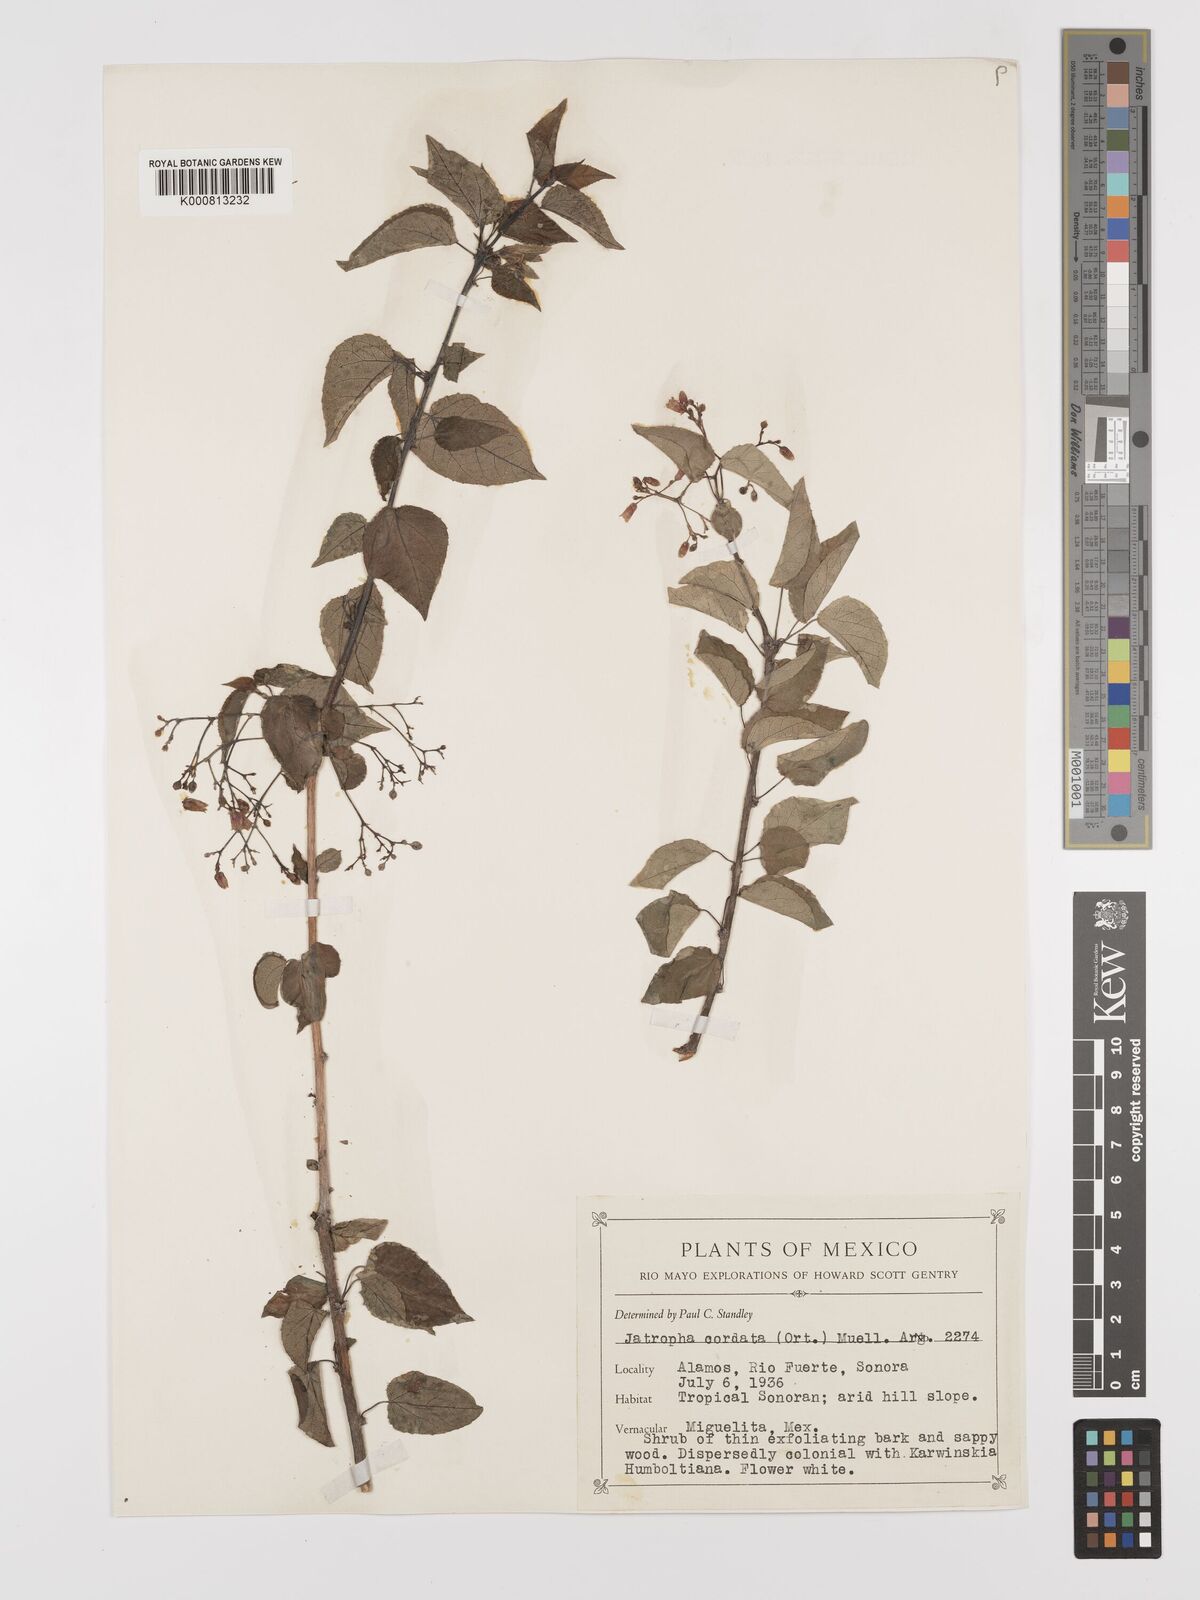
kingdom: Plantae
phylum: Tracheophyta
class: Magnoliopsida
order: Malpighiales
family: Euphorbiaceae
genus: Jatropha
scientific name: Jatropha
